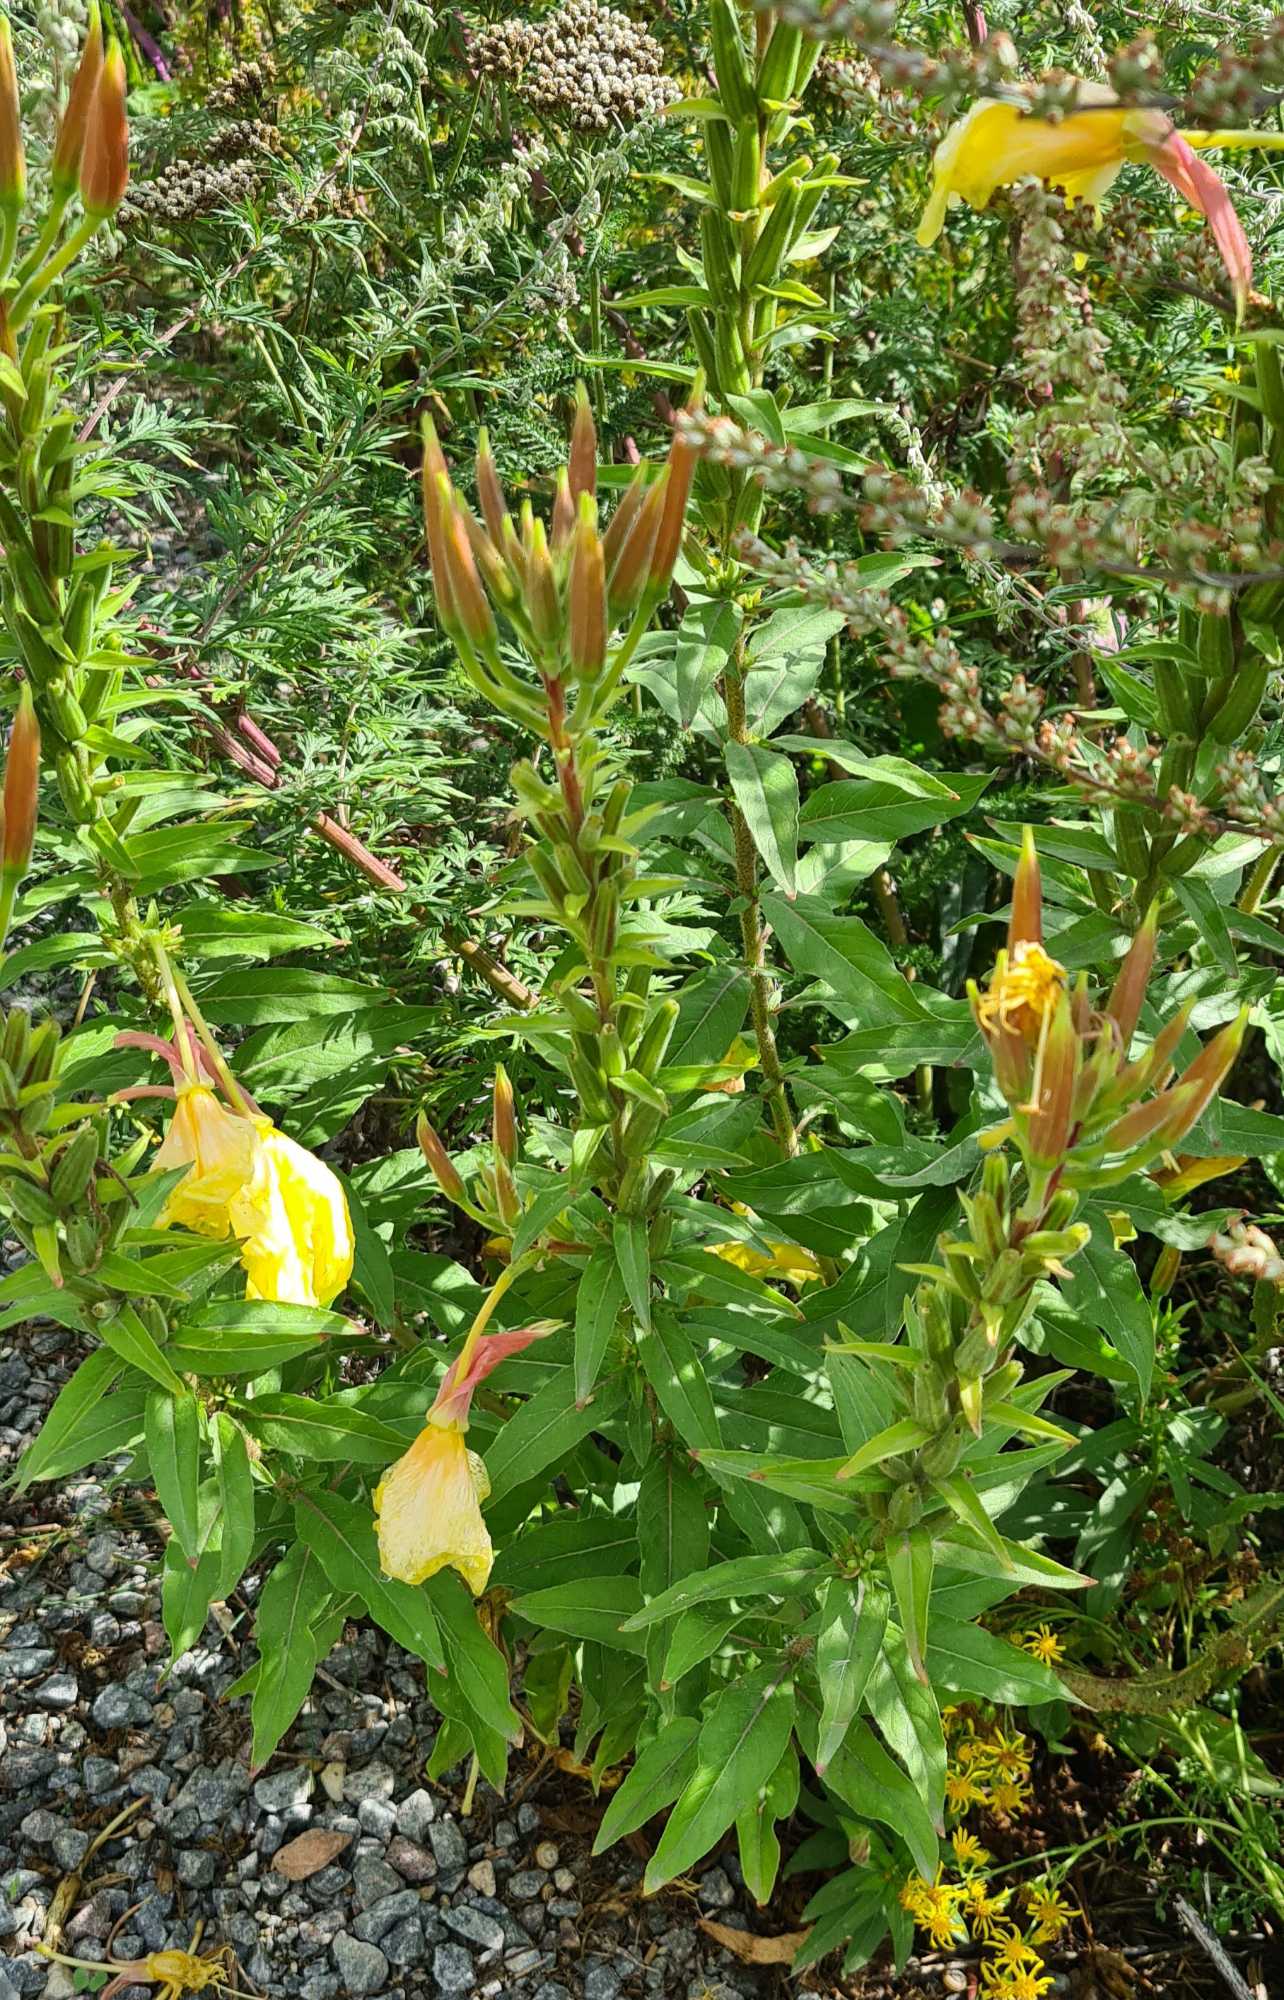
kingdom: Plantae
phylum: Tracheophyta
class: Magnoliopsida
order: Myrtales
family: Onagraceae
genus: Oenothera
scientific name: Oenothera glazioviana
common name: Kæmpe-natlys
